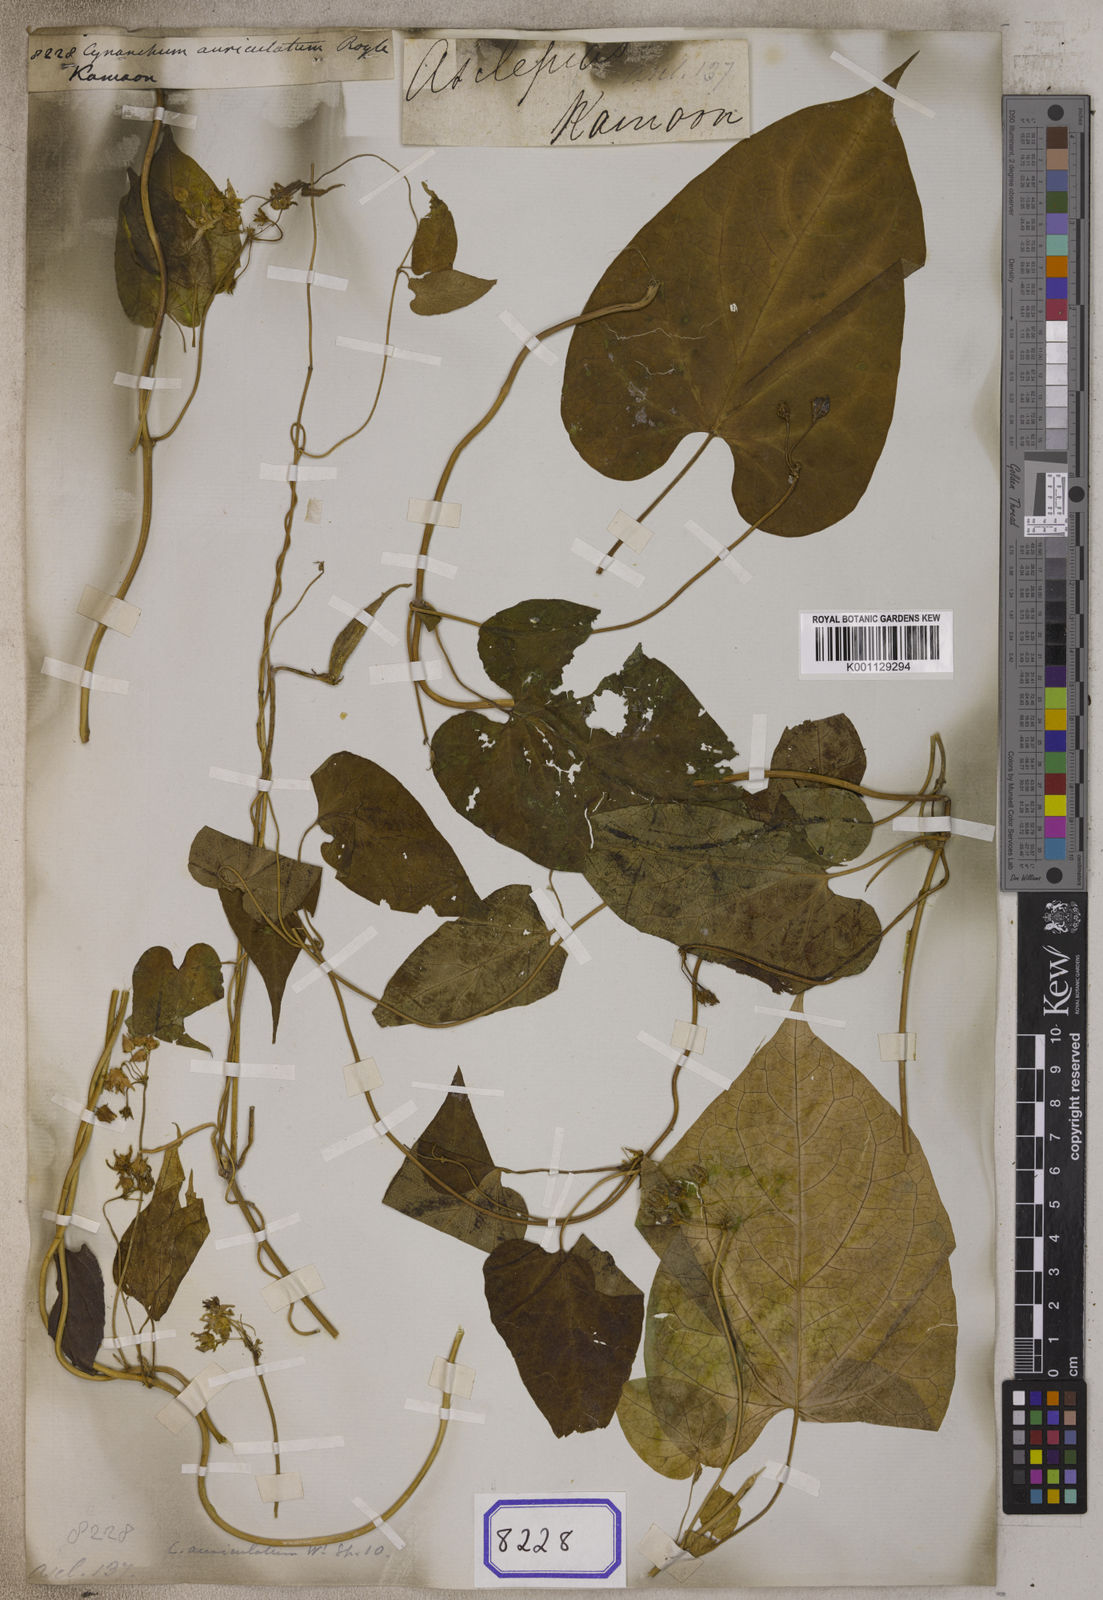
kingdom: Plantae
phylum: Tracheophyta
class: Magnoliopsida
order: Gentianales
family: Apocynaceae
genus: Cynanchum
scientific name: Cynanchum auriculatum
